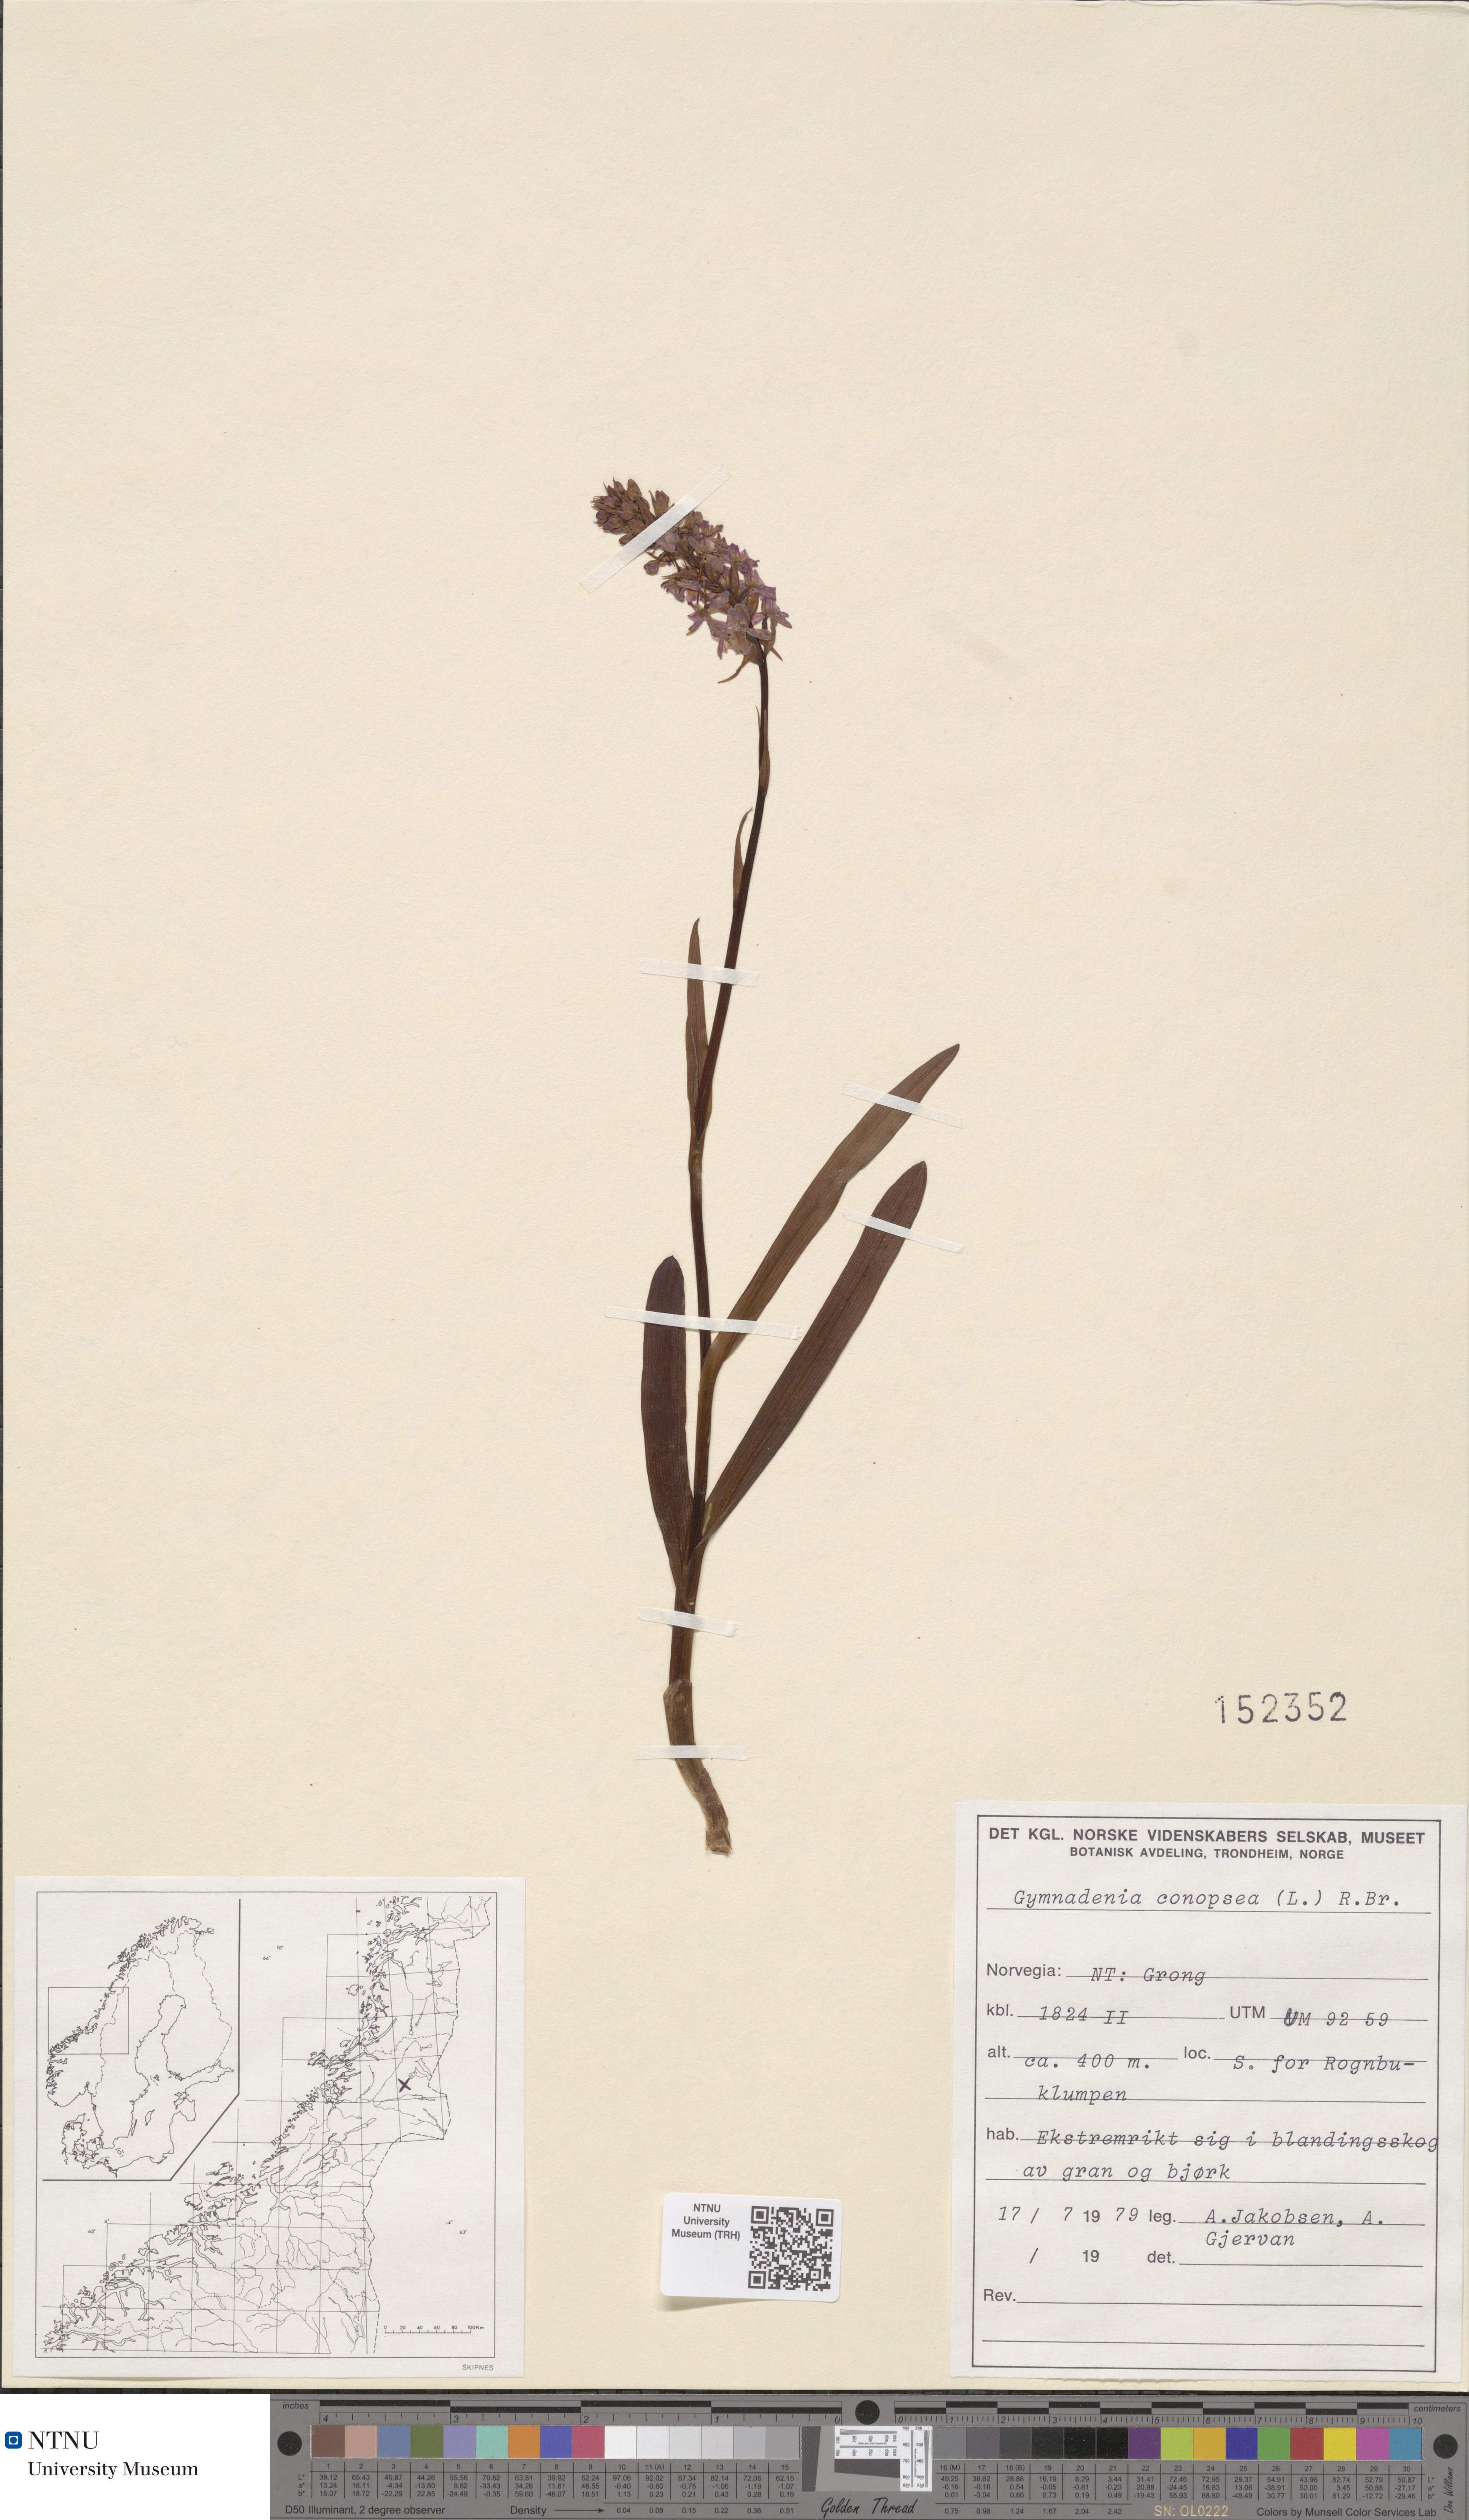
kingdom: Plantae
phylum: Tracheophyta
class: Liliopsida
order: Asparagales
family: Orchidaceae
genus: Gymnadenia
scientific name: Gymnadenia conopsea
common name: Fragrant orchid
